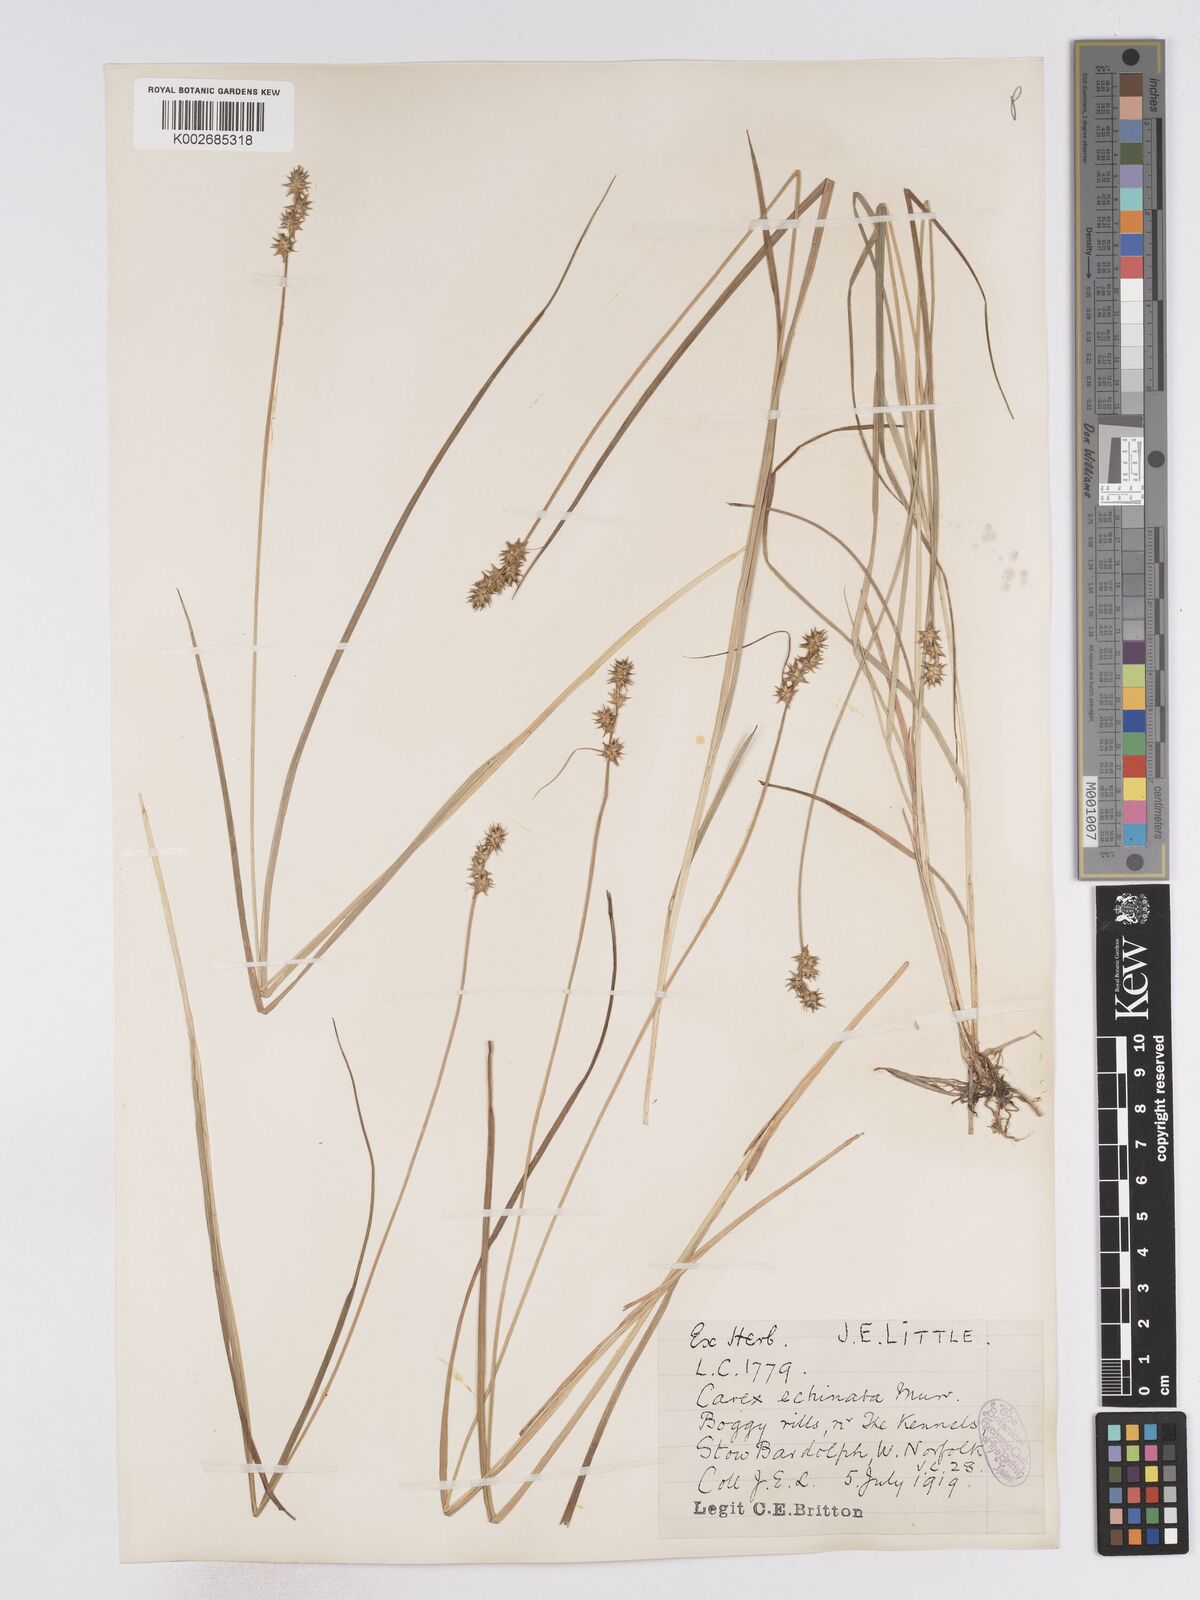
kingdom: Plantae
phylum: Tracheophyta
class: Liliopsida
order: Poales
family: Cyperaceae
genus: Carex
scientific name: Carex echinata
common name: Star sedge
